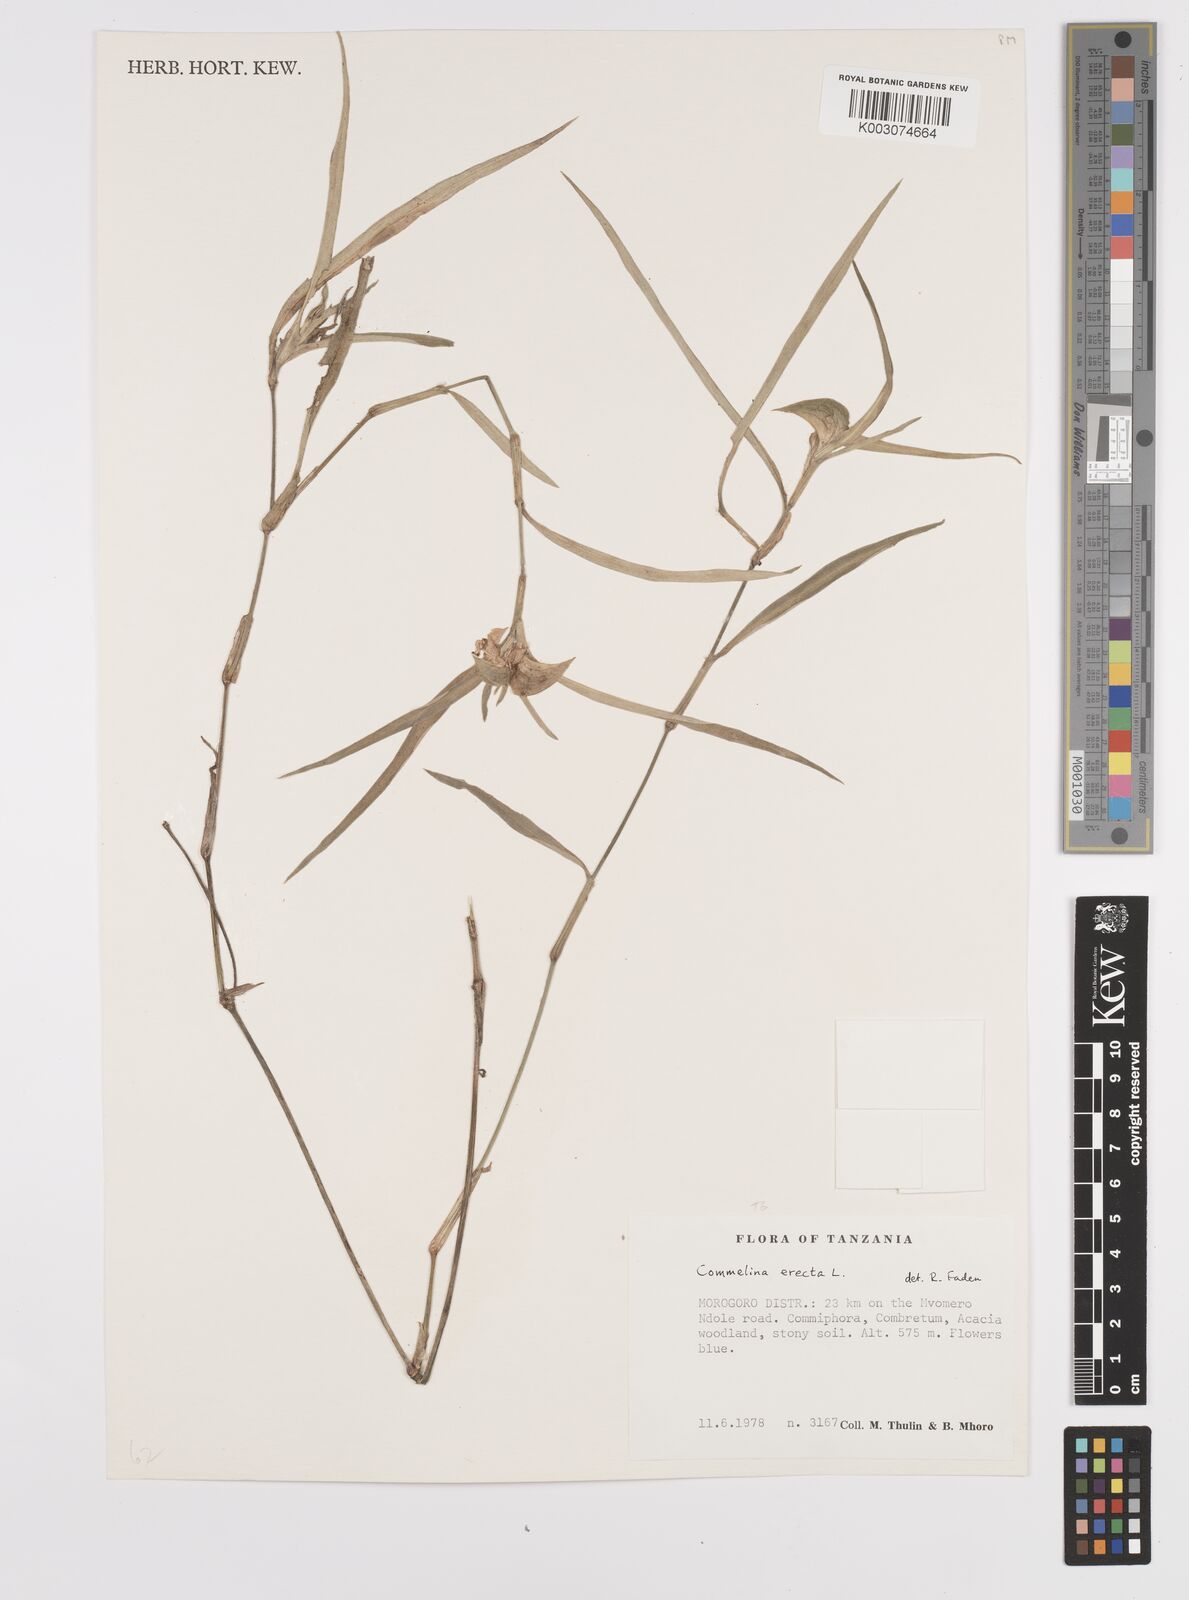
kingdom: Plantae
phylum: Tracheophyta
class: Liliopsida
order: Commelinales
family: Commelinaceae
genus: Commelina
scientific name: Commelina erecta
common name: Blousel blommetjie
